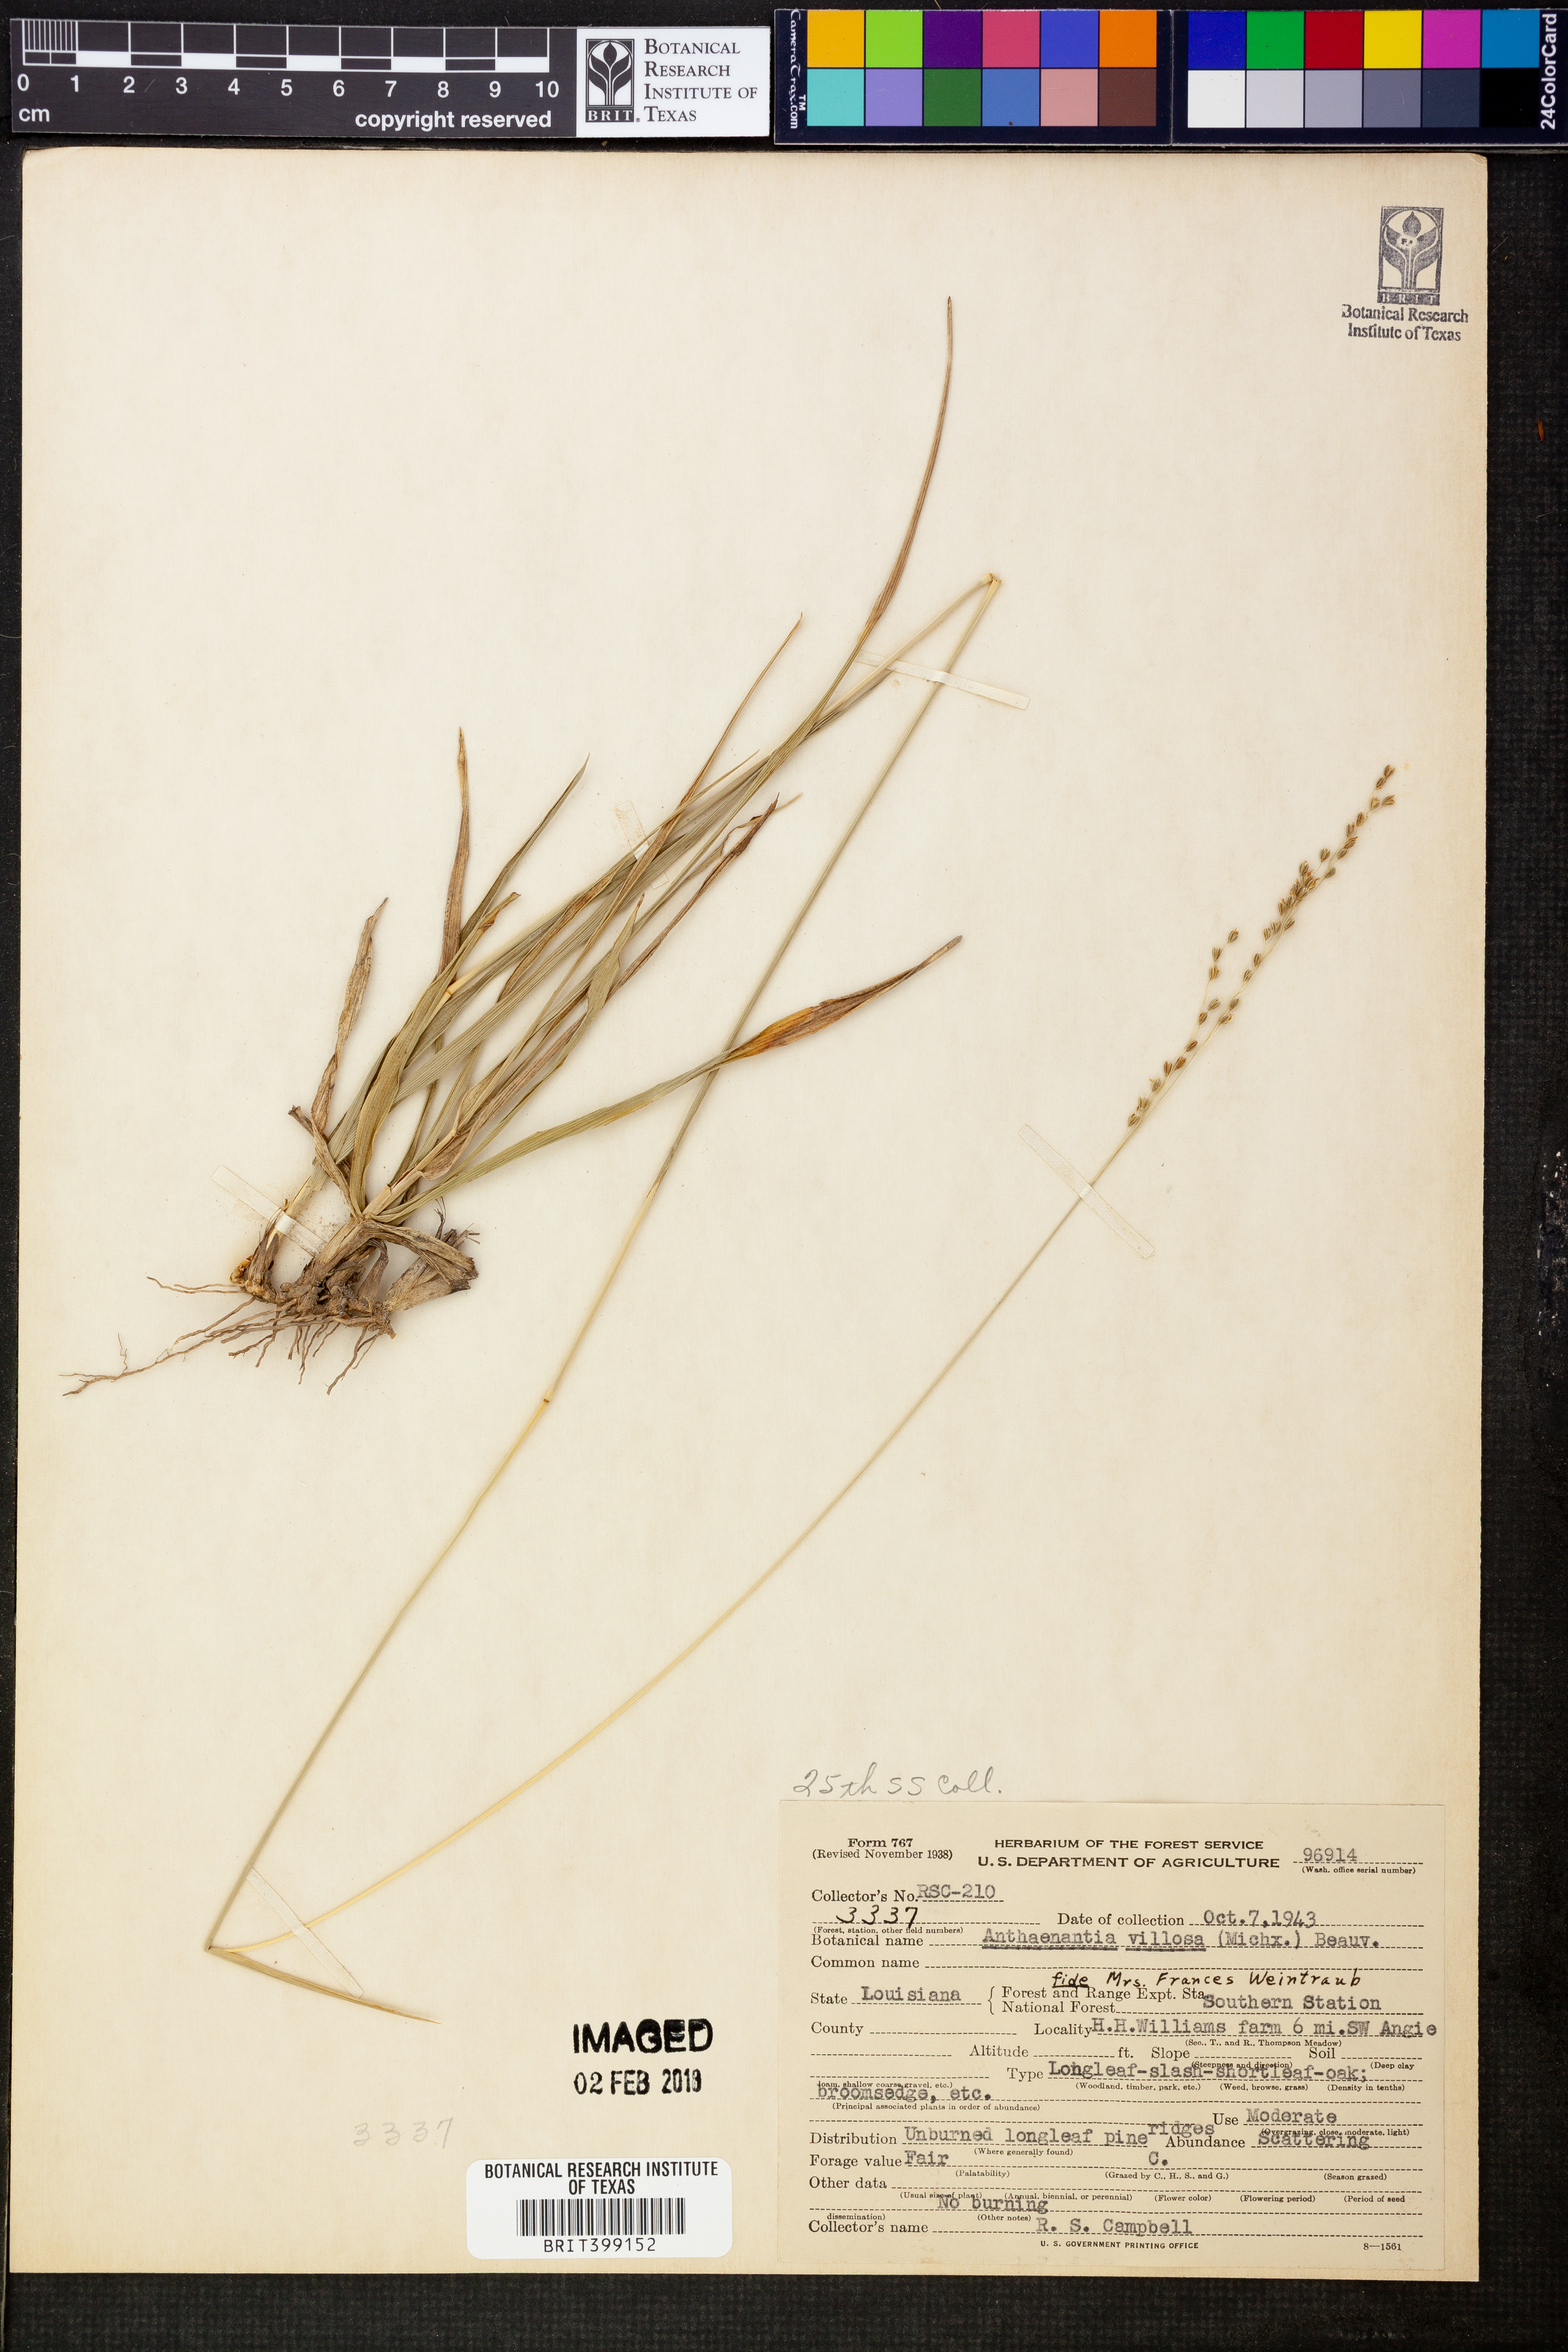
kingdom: Plantae
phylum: Tracheophyta
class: Liliopsida
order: Poales
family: Poaceae
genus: Anthenantia
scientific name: Anthenantia villosa
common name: Green silkyscale
